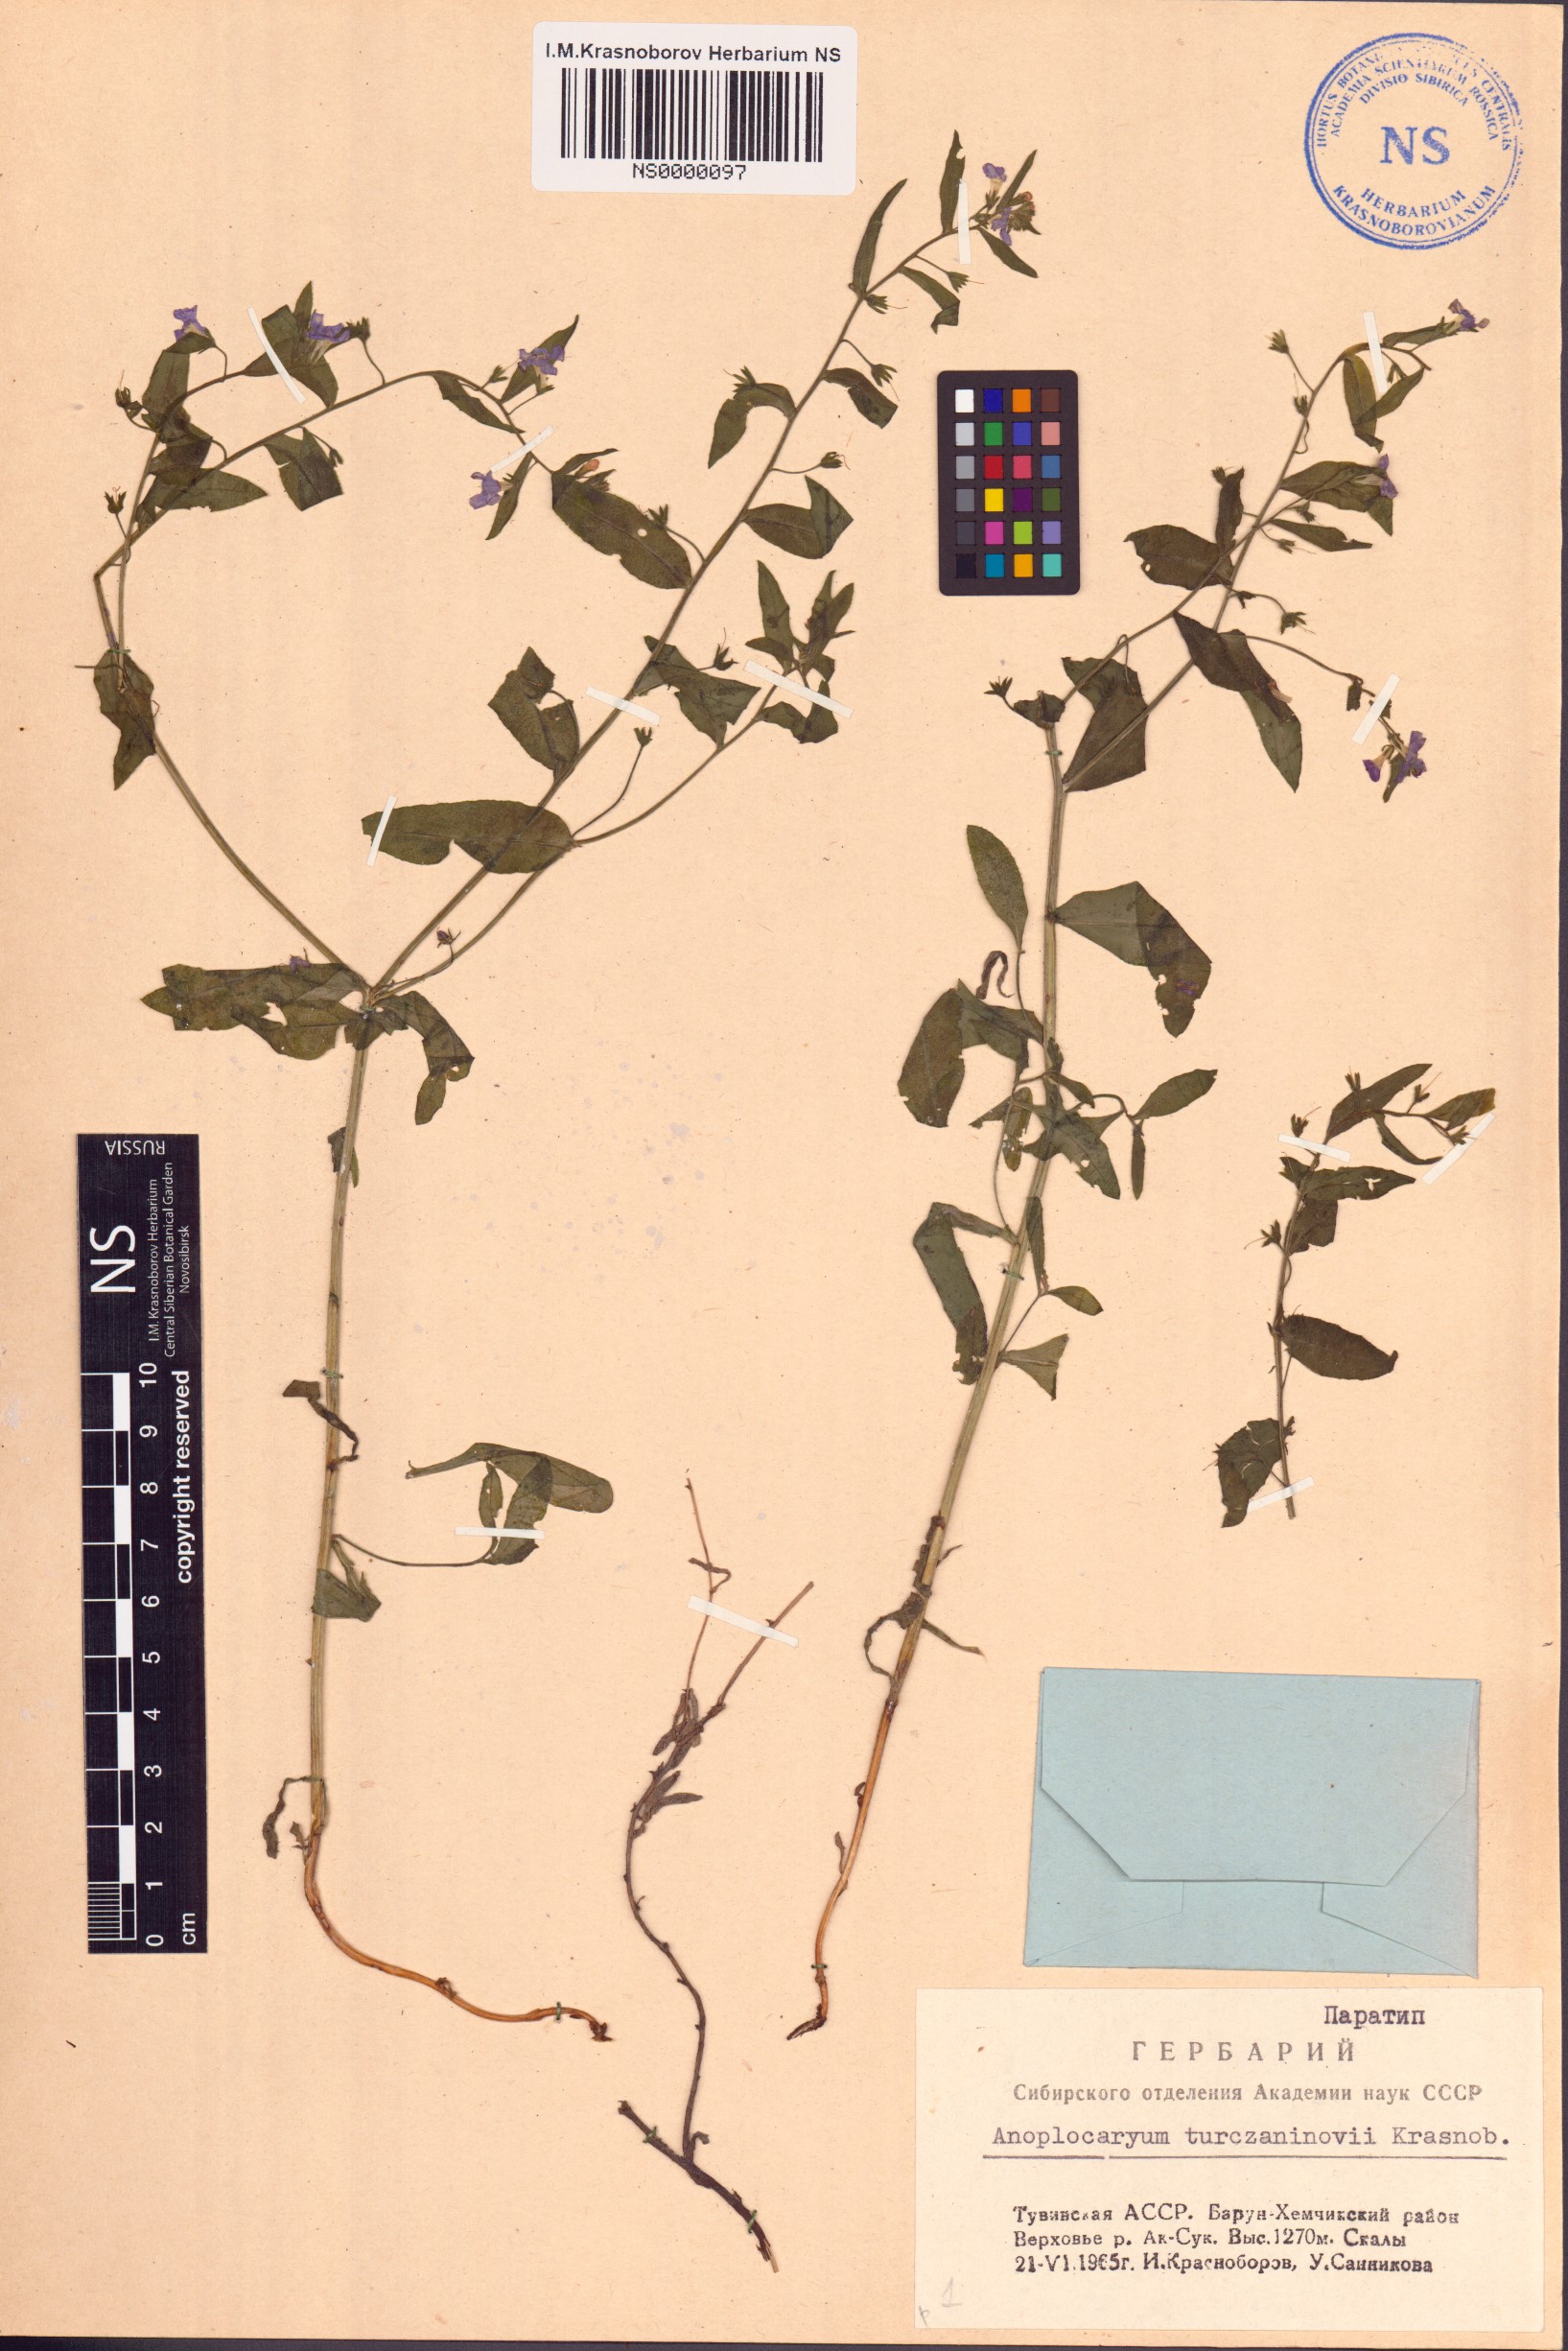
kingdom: Plantae
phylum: Tracheophyta
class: Magnoliopsida
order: Boraginales
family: Boraginaceae
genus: Anoplocaryum
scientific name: Anoplocaryum turczaninovii
